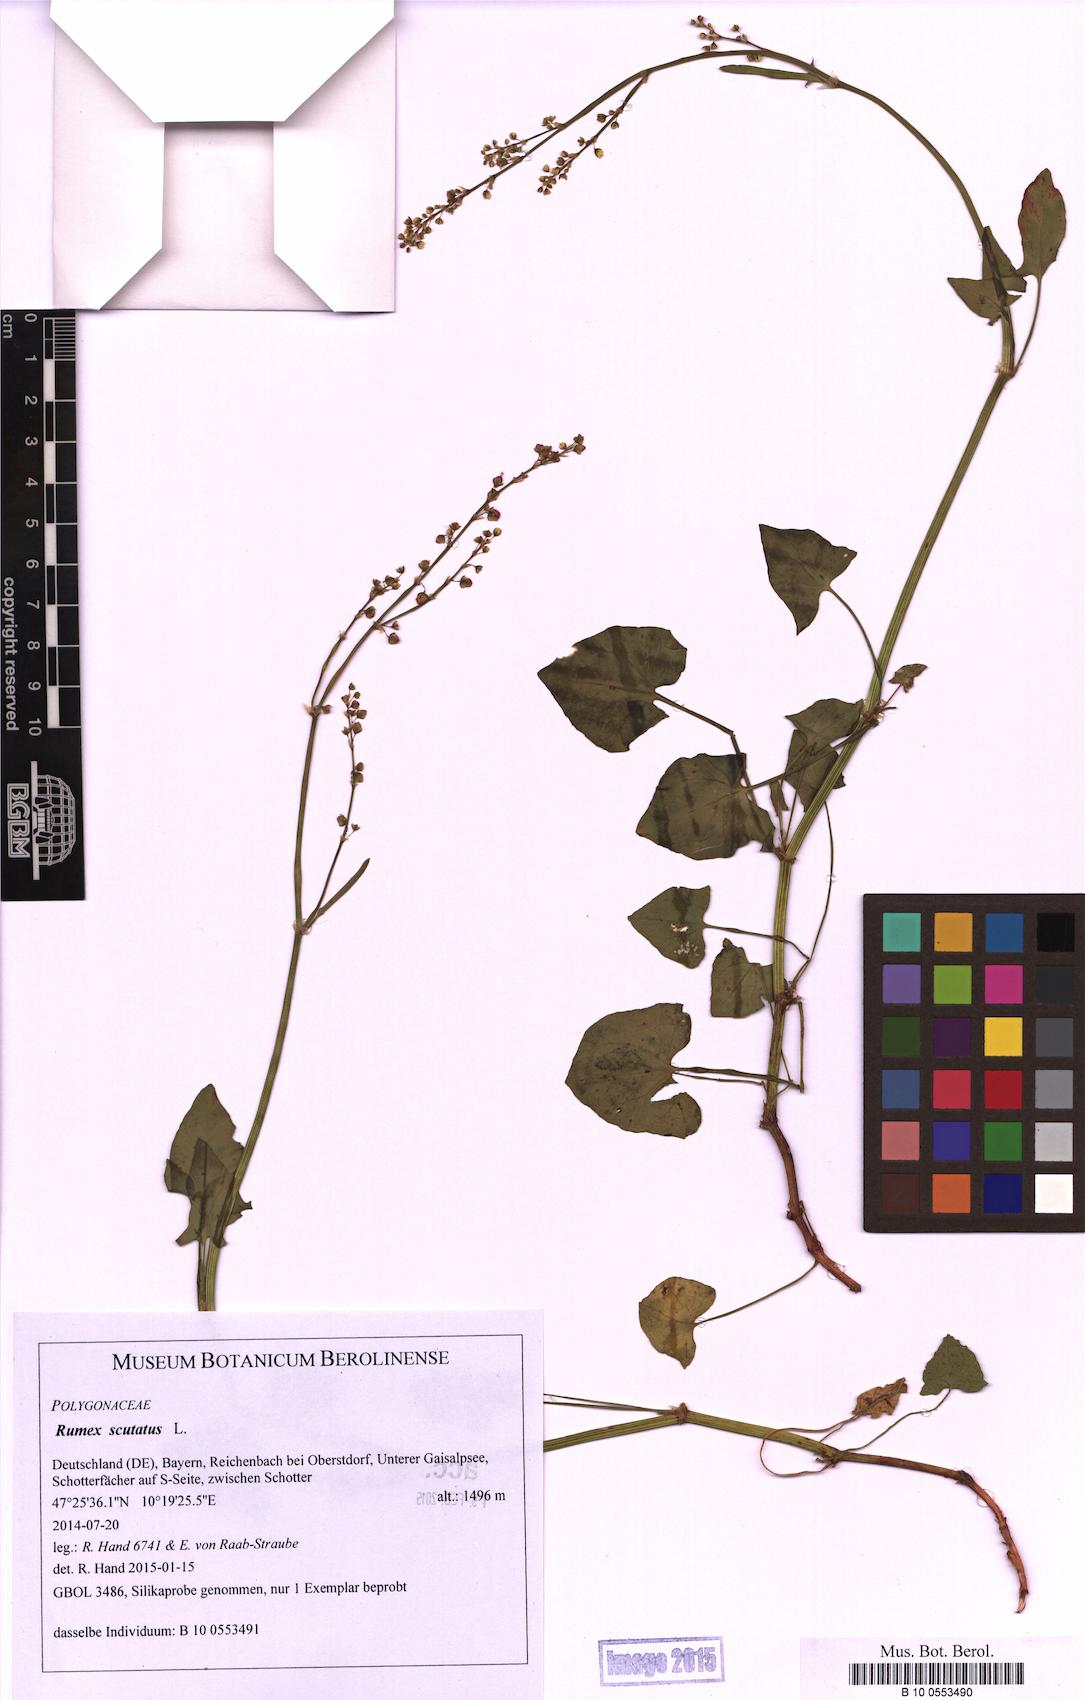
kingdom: Plantae
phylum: Tracheophyta
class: Magnoliopsida
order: Caryophyllales
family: Polygonaceae
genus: Rumex
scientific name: Rumex scutatus
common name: French sorrel
